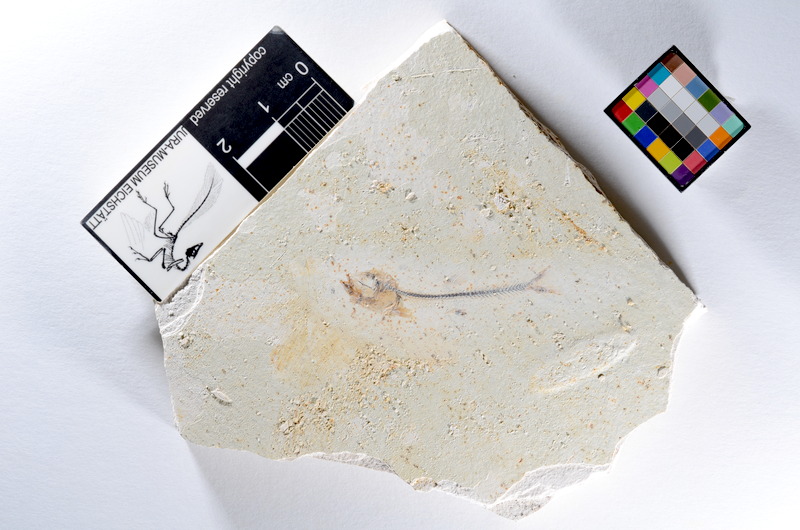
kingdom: Animalia
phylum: Chordata
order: Salmoniformes
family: Orthogonikleithridae
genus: Orthogonikleithrus
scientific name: Orthogonikleithrus hoelli
